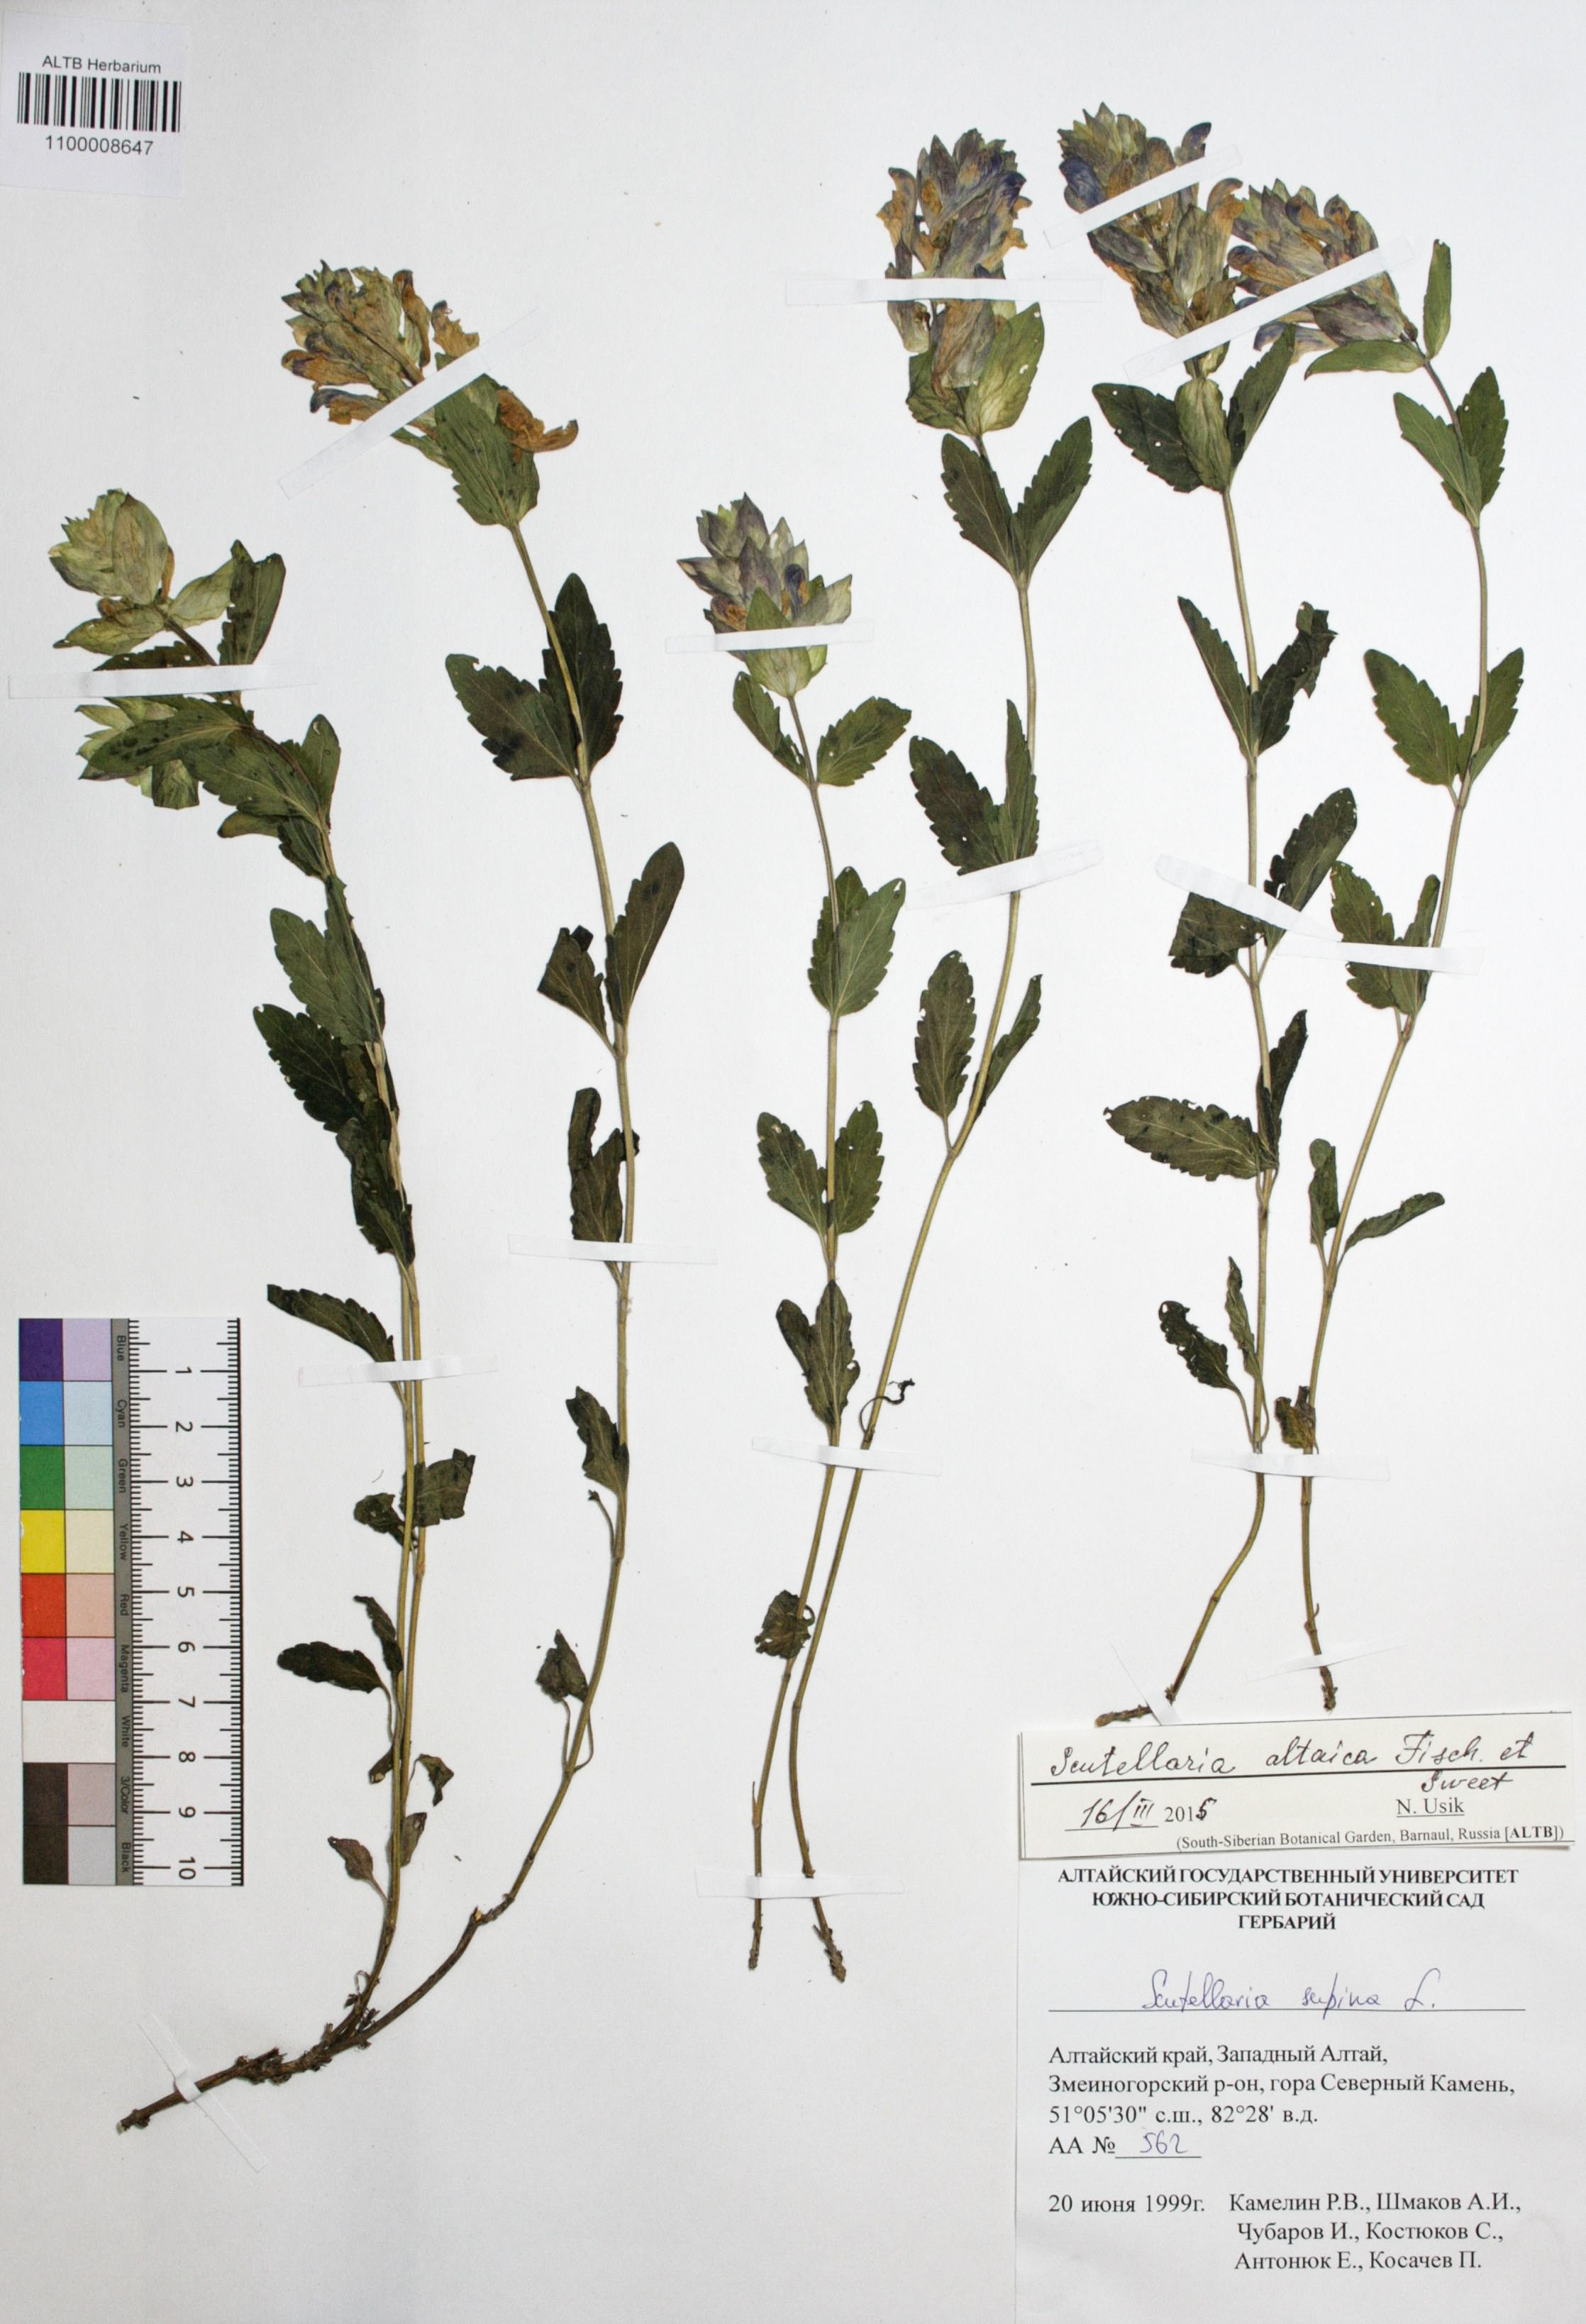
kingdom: Plantae
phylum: Tracheophyta
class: Magnoliopsida
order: Lamiales
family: Lamiaceae
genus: Scutellaria
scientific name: Scutellaria supina
